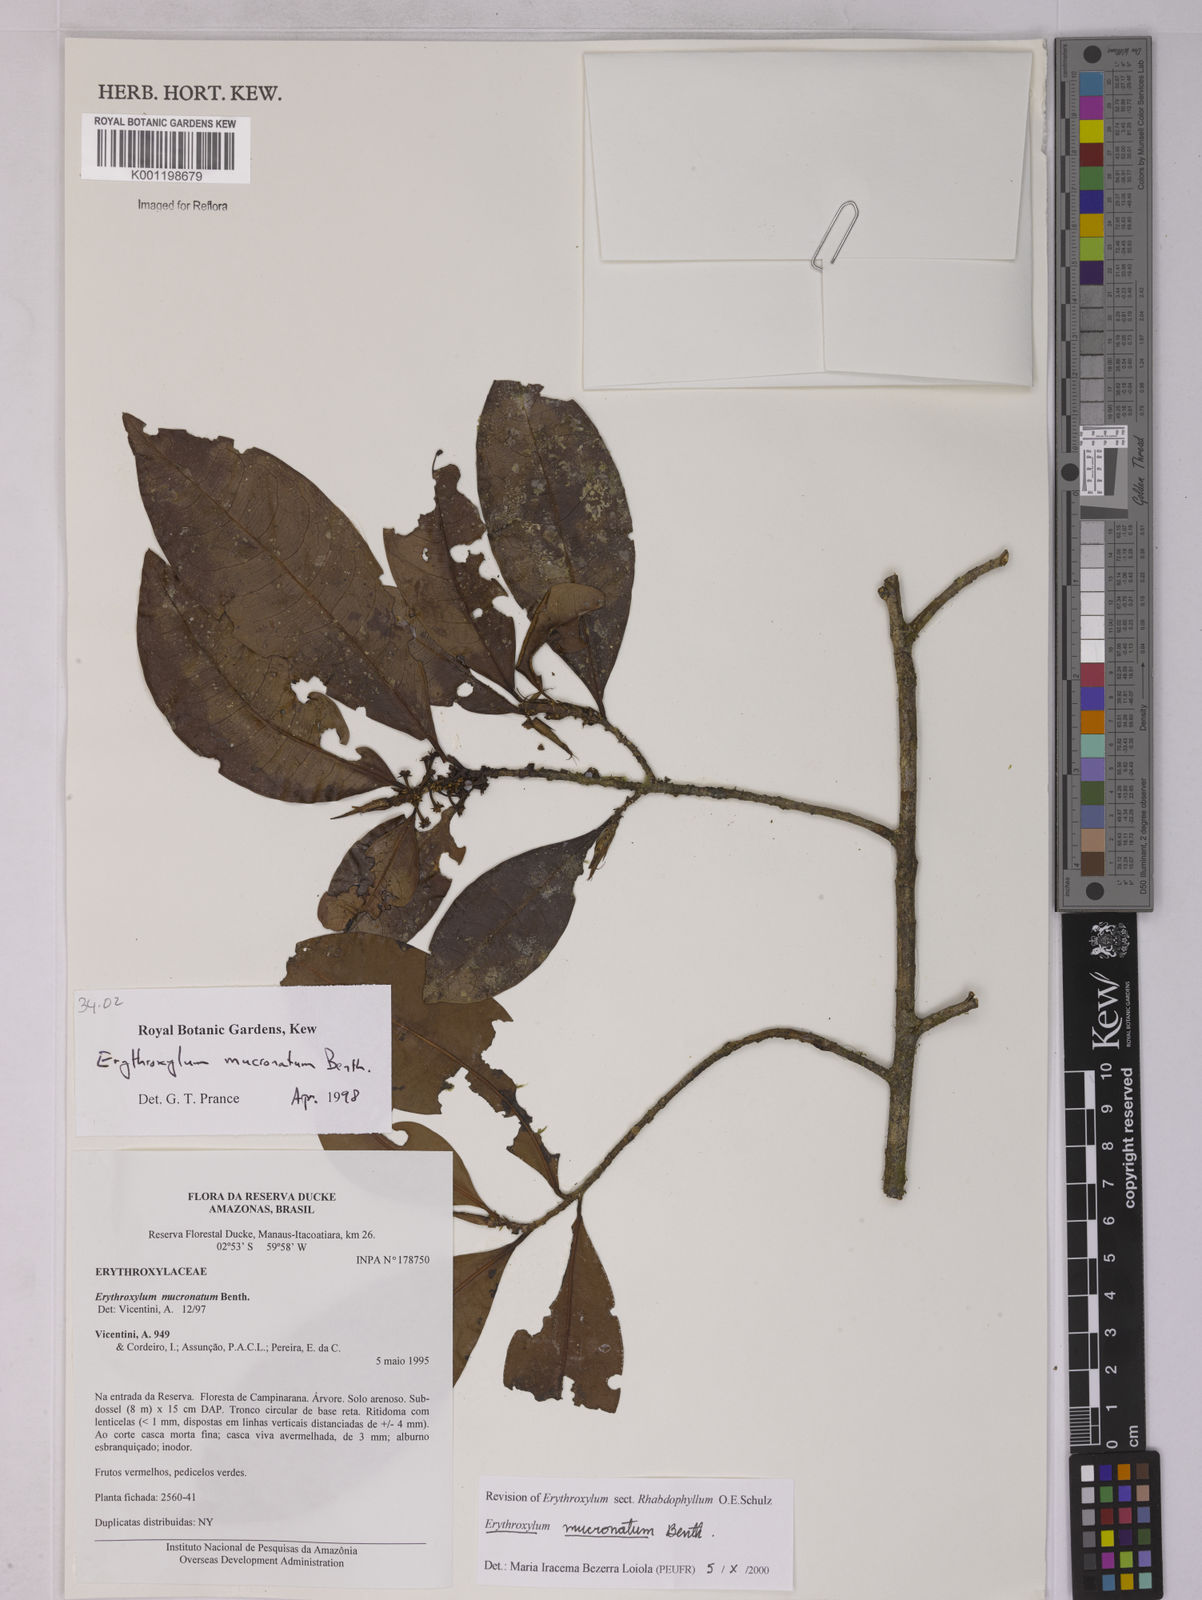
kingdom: Plantae
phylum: Tracheophyta
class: Magnoliopsida
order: Malpighiales
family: Erythroxylaceae
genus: Erythroxylum
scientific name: Erythroxylum mucronatum
